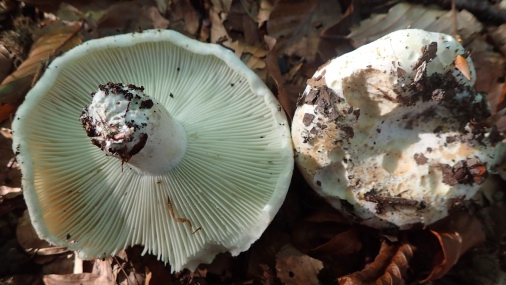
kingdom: Fungi
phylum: Basidiomycota
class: Agaricomycetes
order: Russulales
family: Russulaceae
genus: Russula
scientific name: Russula chloroides
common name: grønhalset tragt-skørhat
